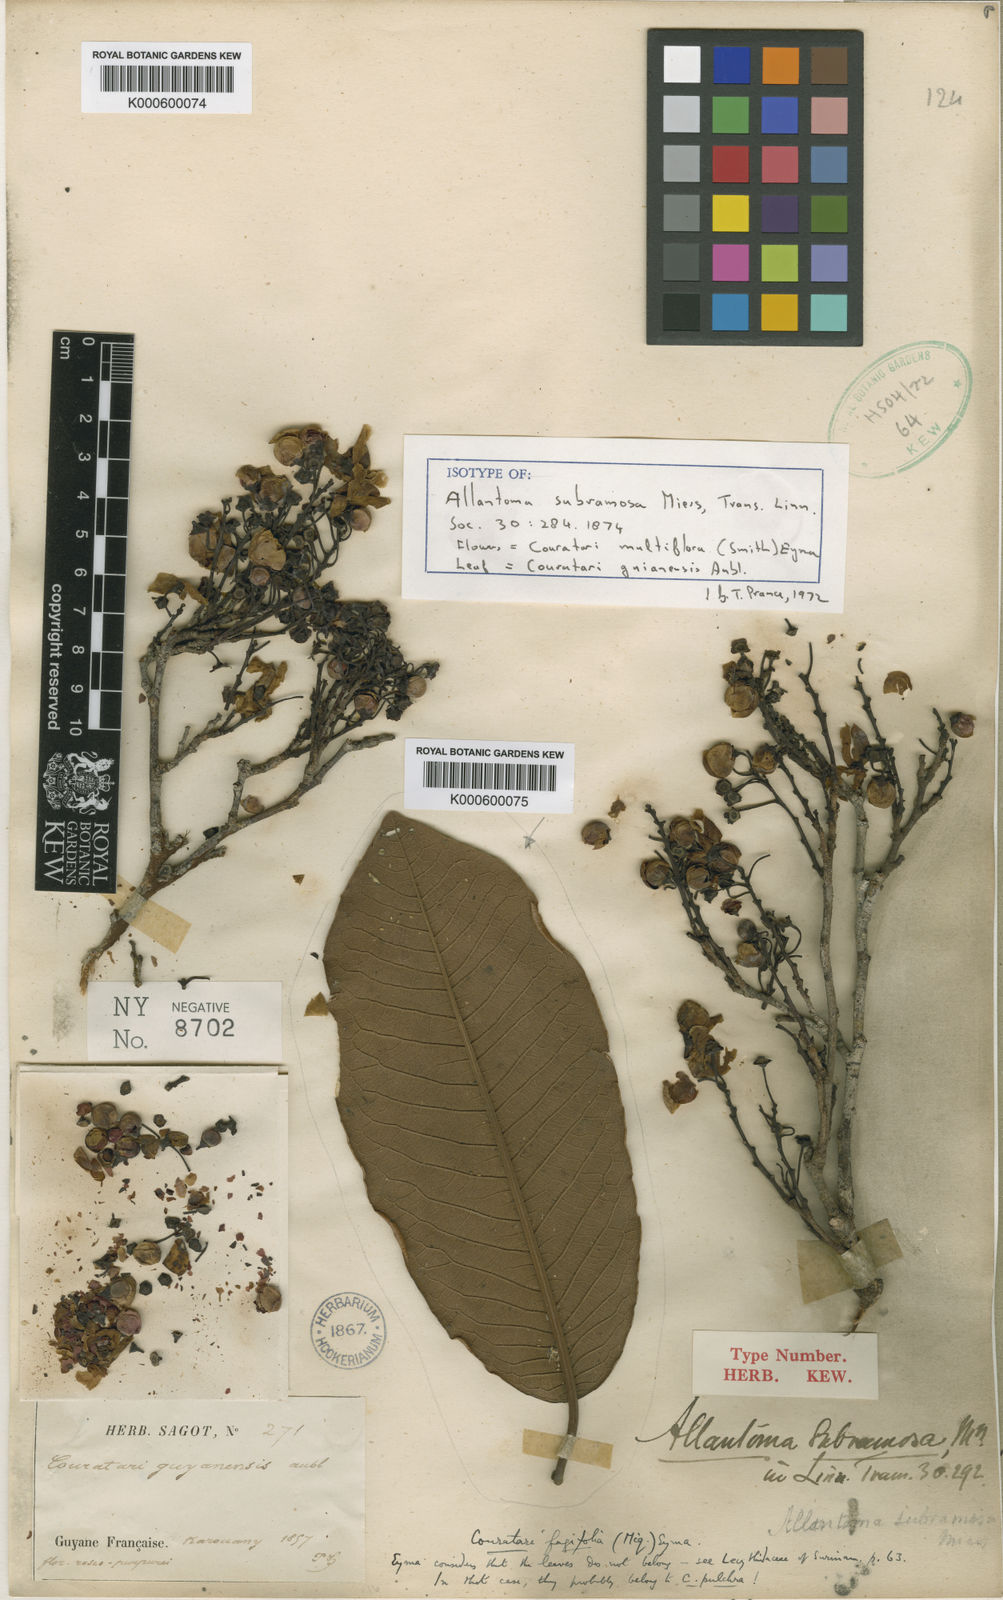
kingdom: Plantae
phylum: Tracheophyta
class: Magnoliopsida
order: Ericales
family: Lecythidaceae
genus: Couratari
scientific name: Couratari multiflora
